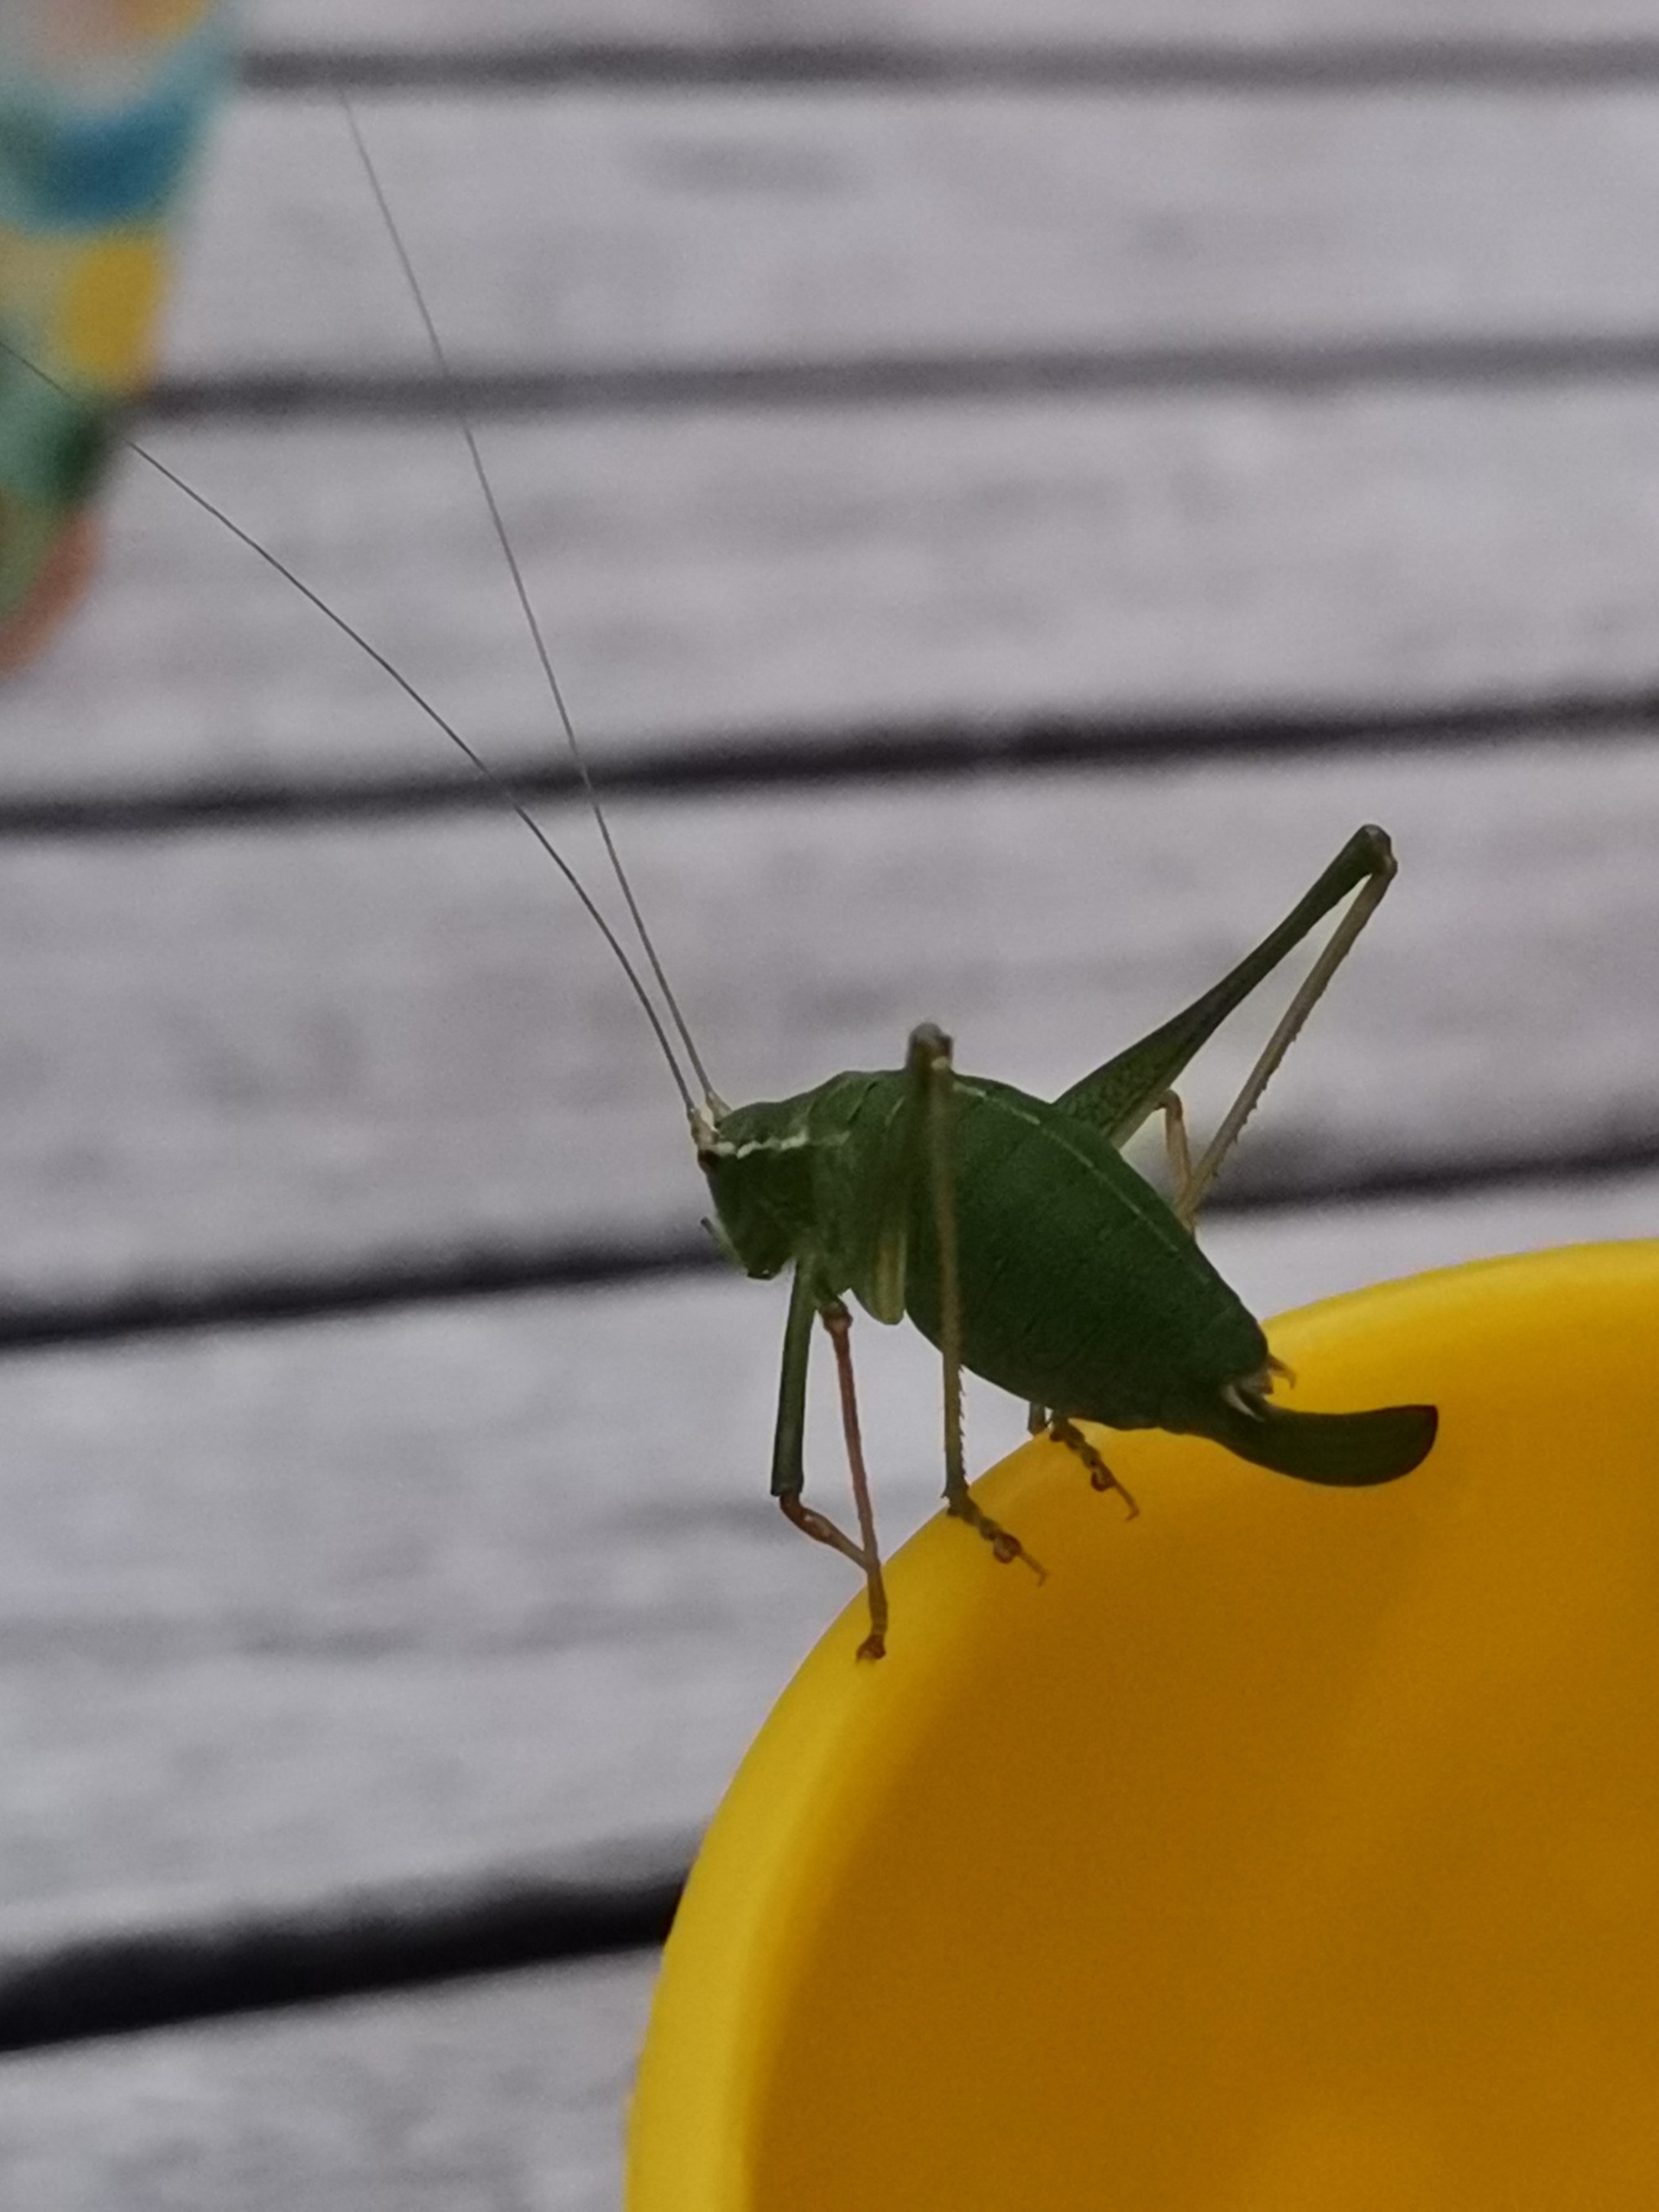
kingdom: Animalia
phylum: Arthropoda
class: Insecta
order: Orthoptera
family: Tettigoniidae
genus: Leptophyes
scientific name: Leptophyes punctatissima
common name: Krumknivgræshoppe
